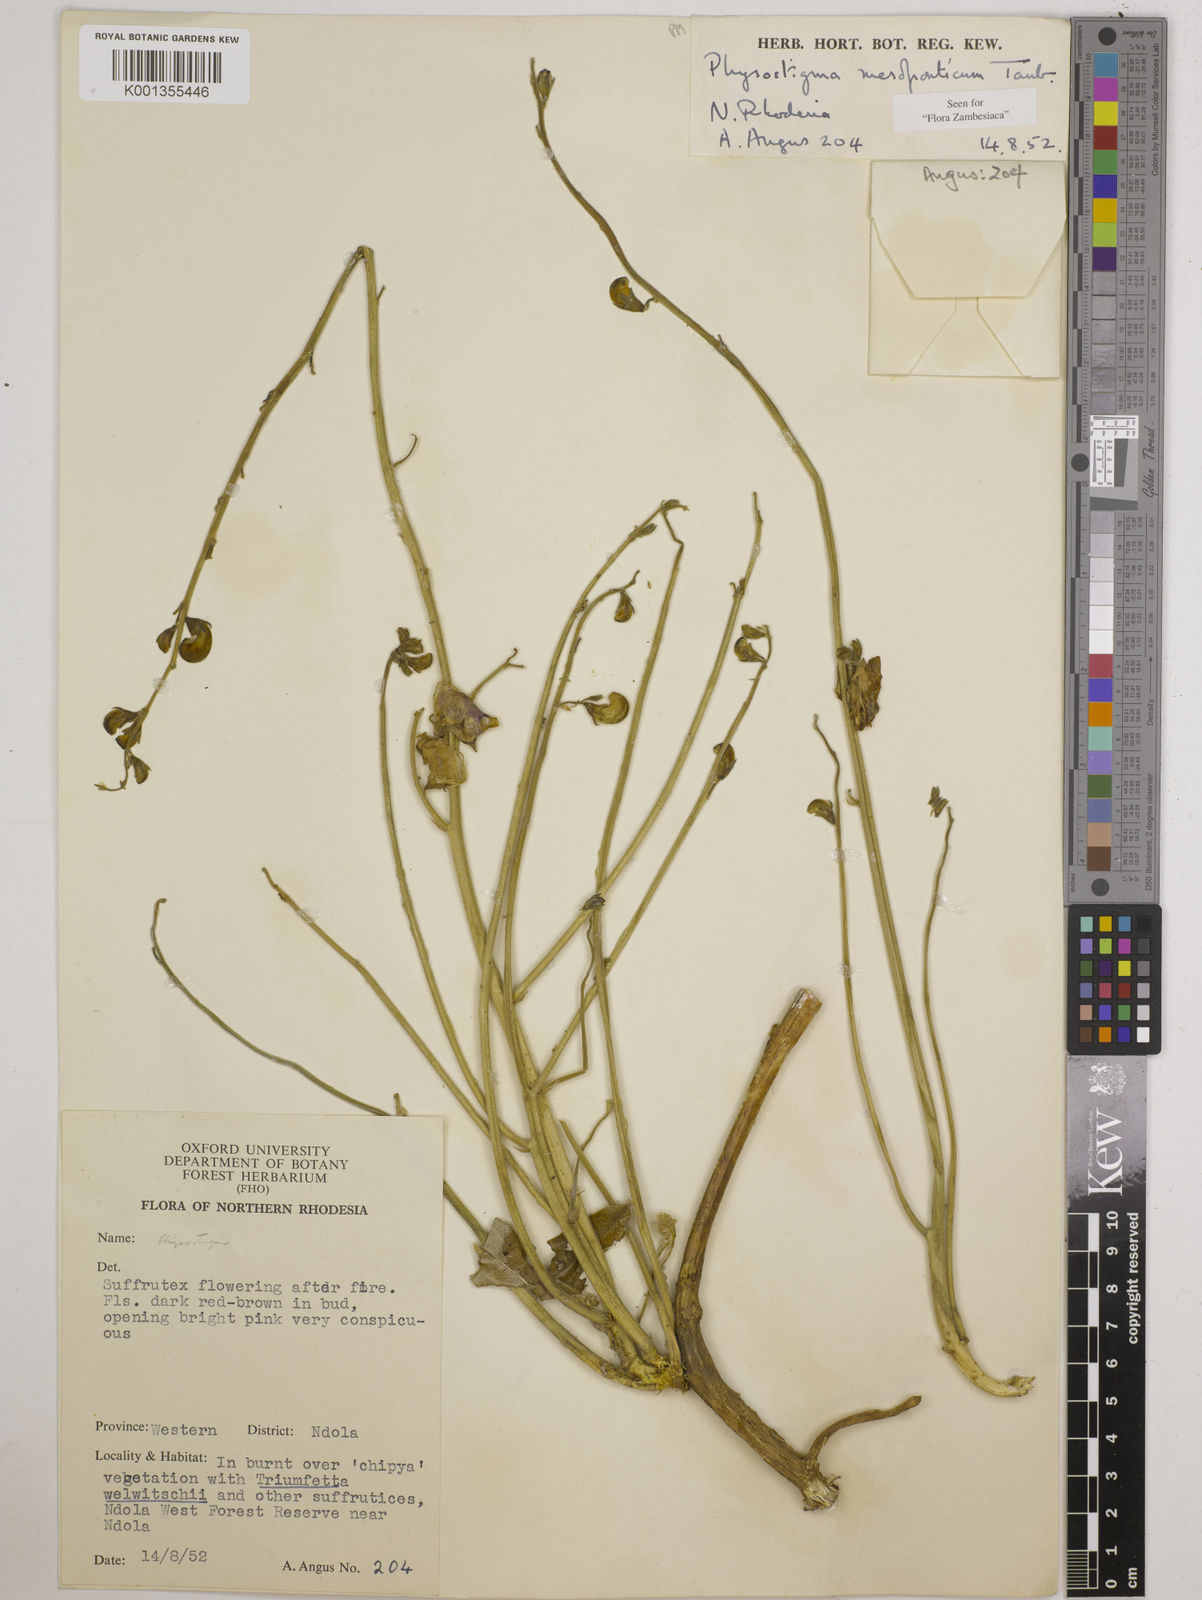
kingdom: Plantae
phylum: Tracheophyta
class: Magnoliopsida
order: Fabales
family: Fabaceae
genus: Physostigma
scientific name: Physostigma mesoponticum
